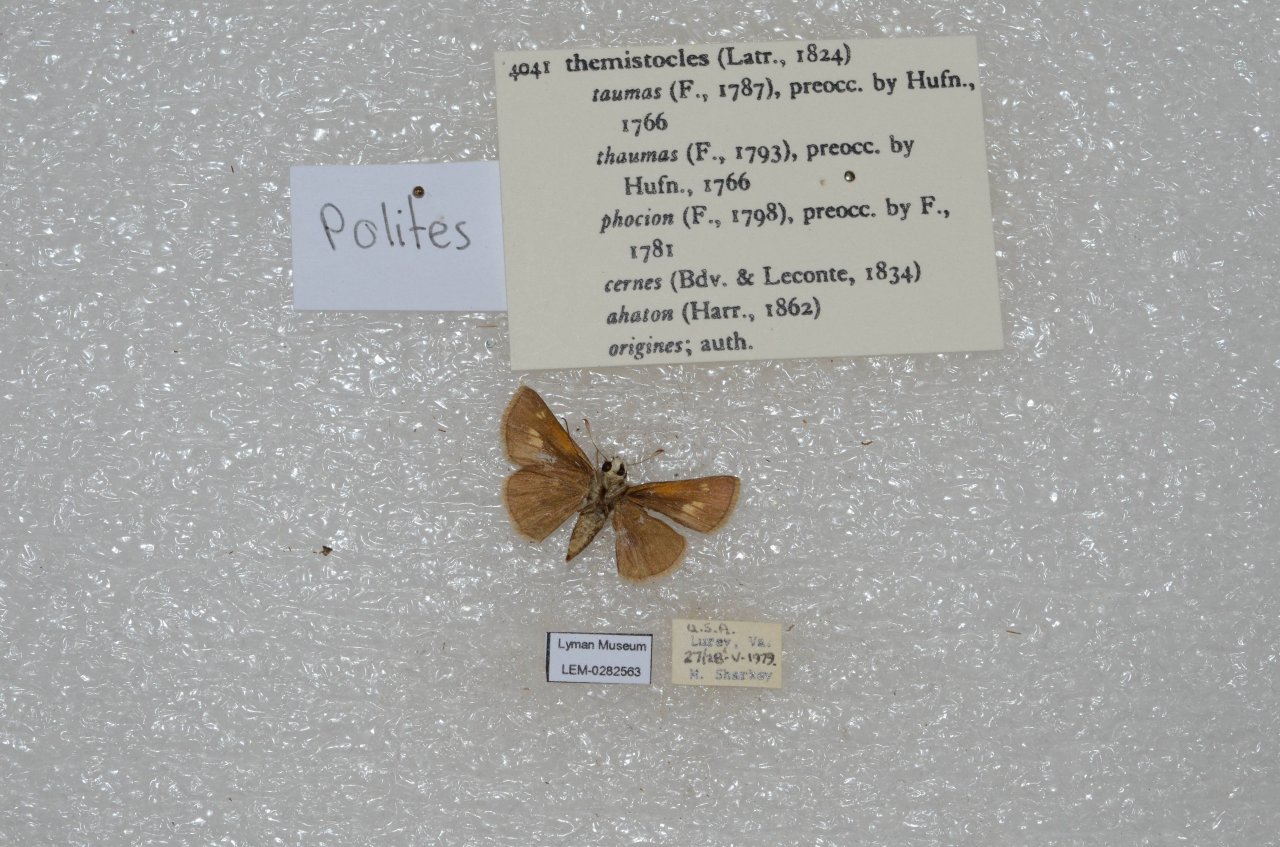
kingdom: Animalia
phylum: Arthropoda
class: Insecta
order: Lepidoptera
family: Hesperiidae
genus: Polites
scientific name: Polites themistocles
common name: Tawny-edged Skipper
